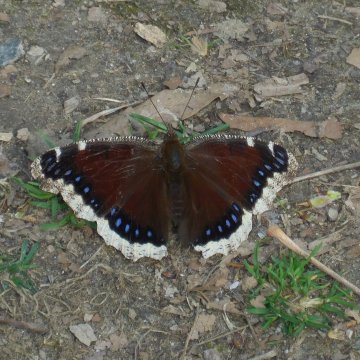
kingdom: Animalia
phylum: Arthropoda
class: Insecta
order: Lepidoptera
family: Nymphalidae
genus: Nymphalis
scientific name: Nymphalis antiopa
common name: Mourning Cloak
